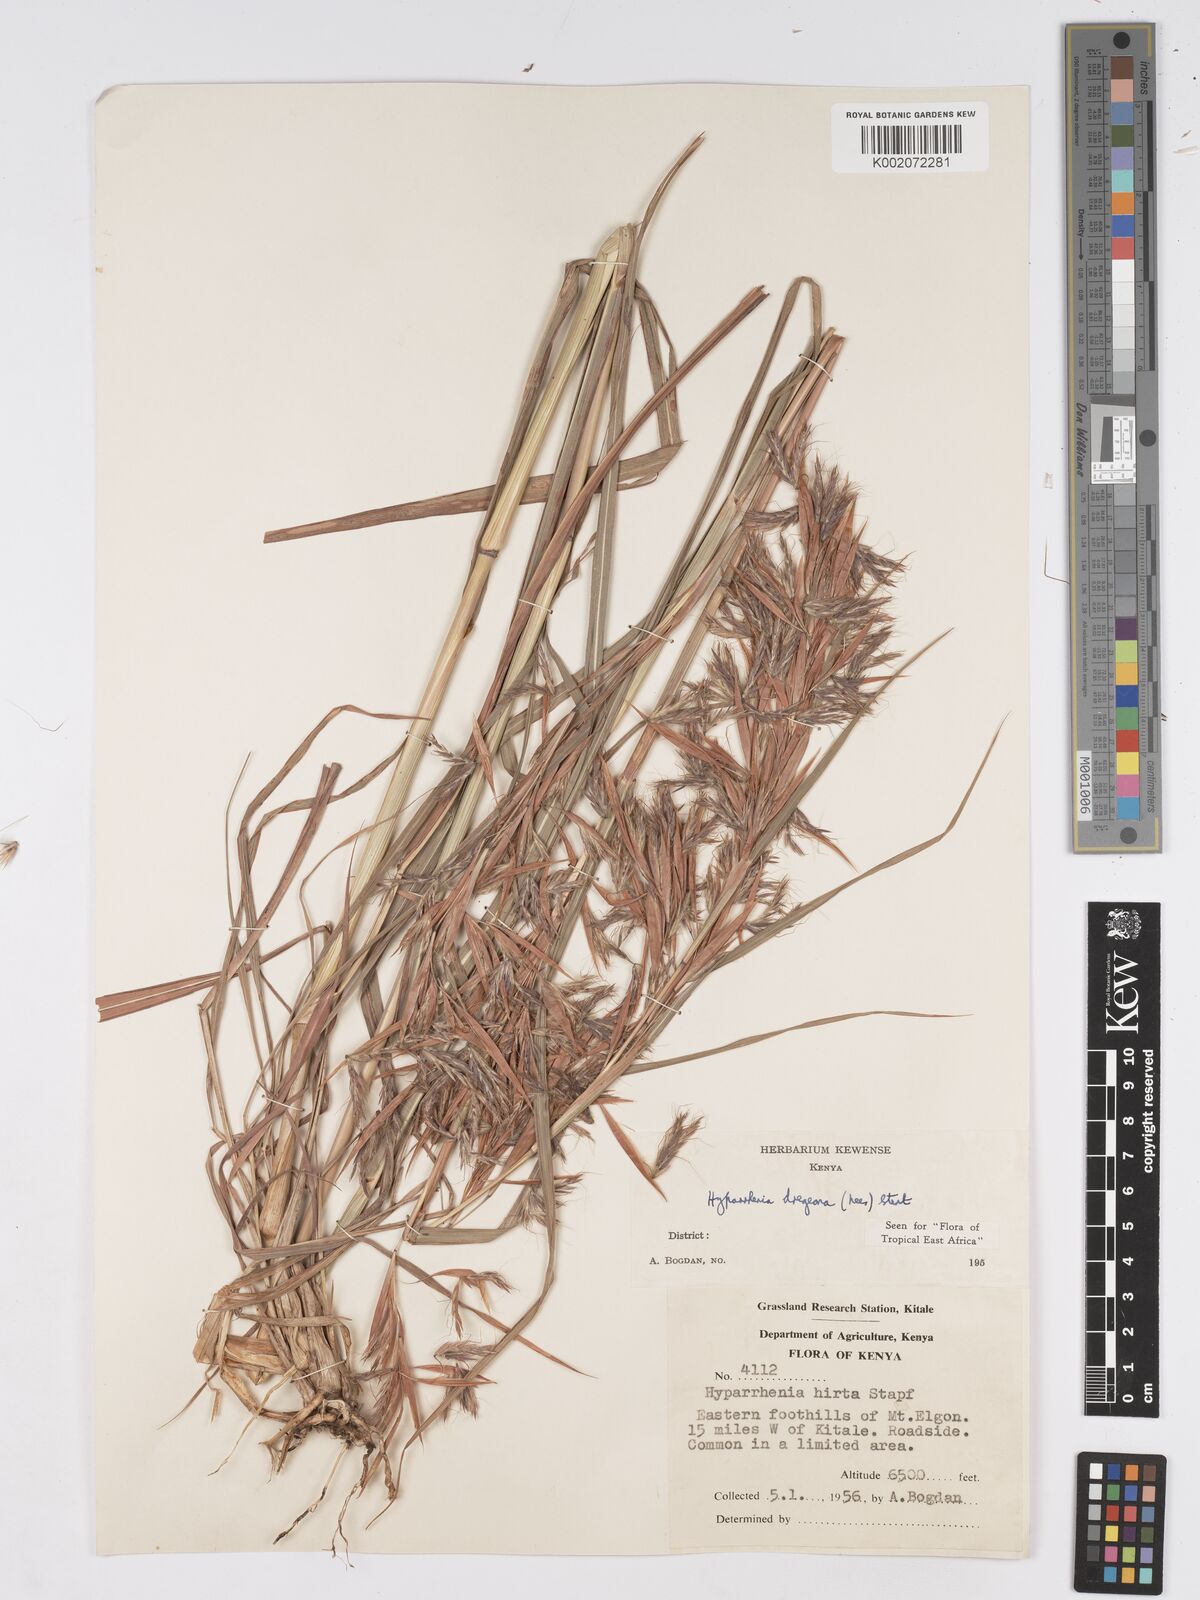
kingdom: Plantae
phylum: Tracheophyta
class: Liliopsida
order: Poales
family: Poaceae
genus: Hyparrhenia
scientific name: Hyparrhenia dregeana
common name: Silky thatching grass
